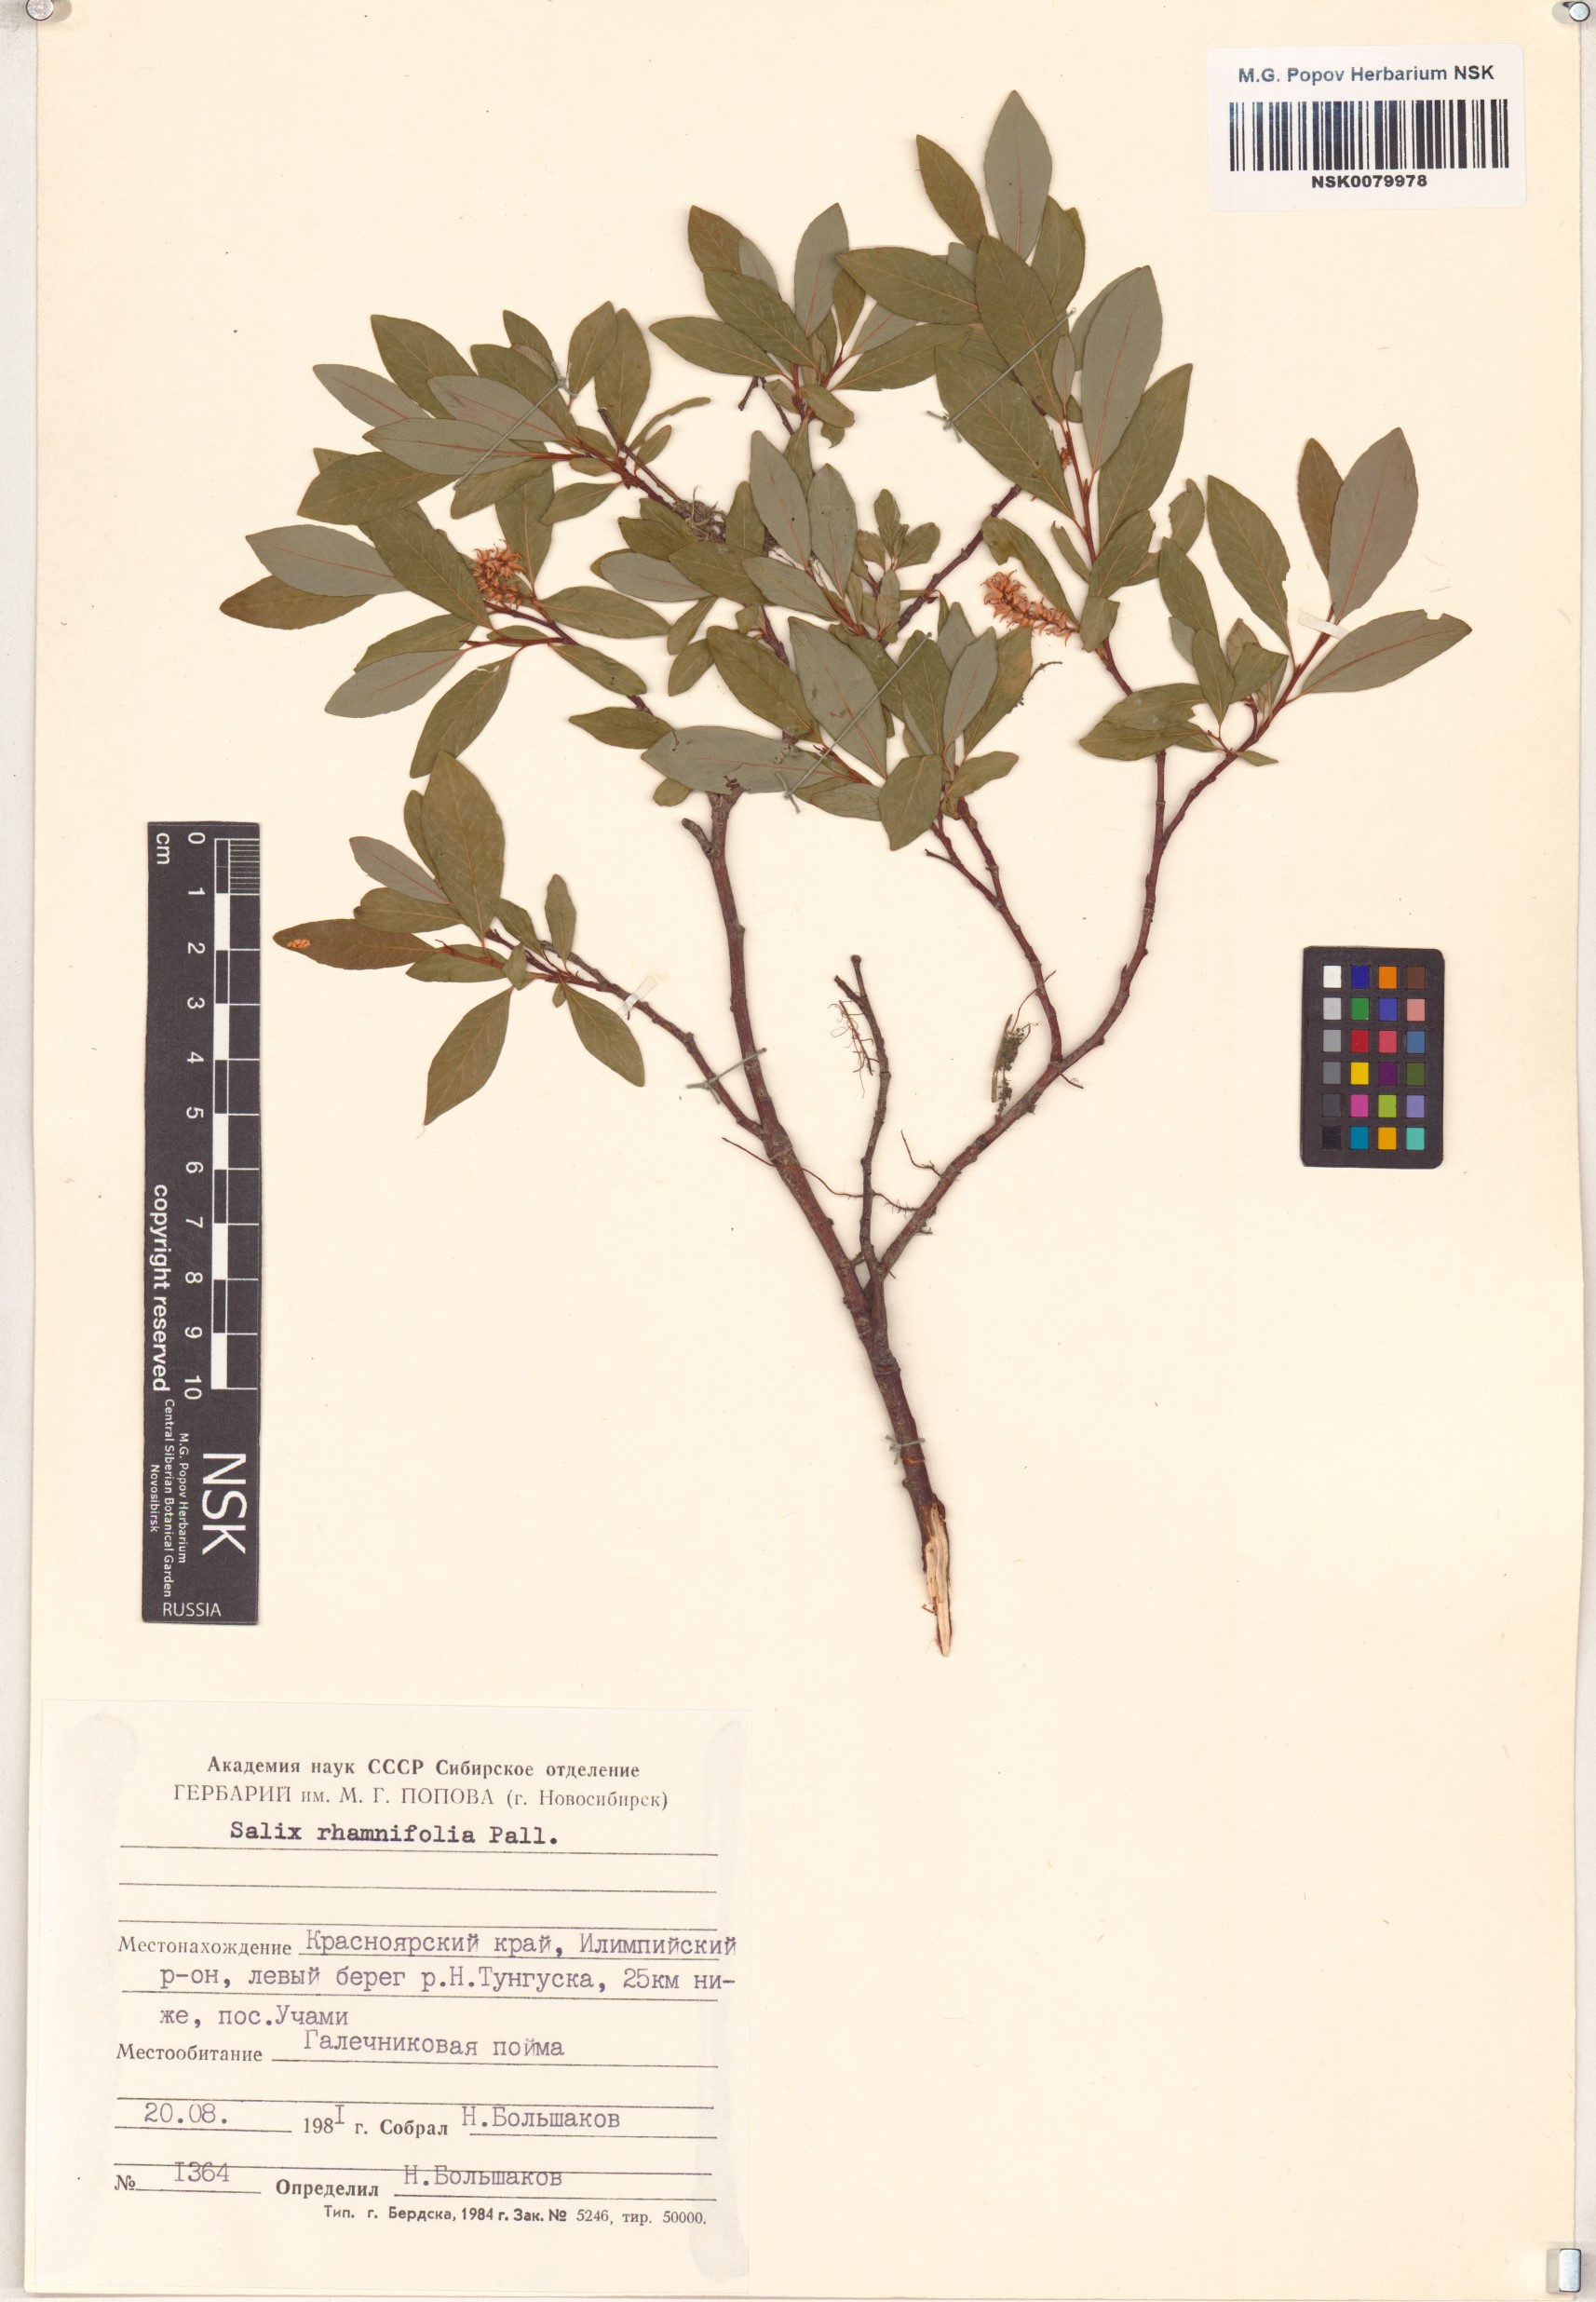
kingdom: Plantae
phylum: Tracheophyta
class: Magnoliopsida
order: Malpighiales
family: Salicaceae
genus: Salix
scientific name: Salix rhamnifolia
